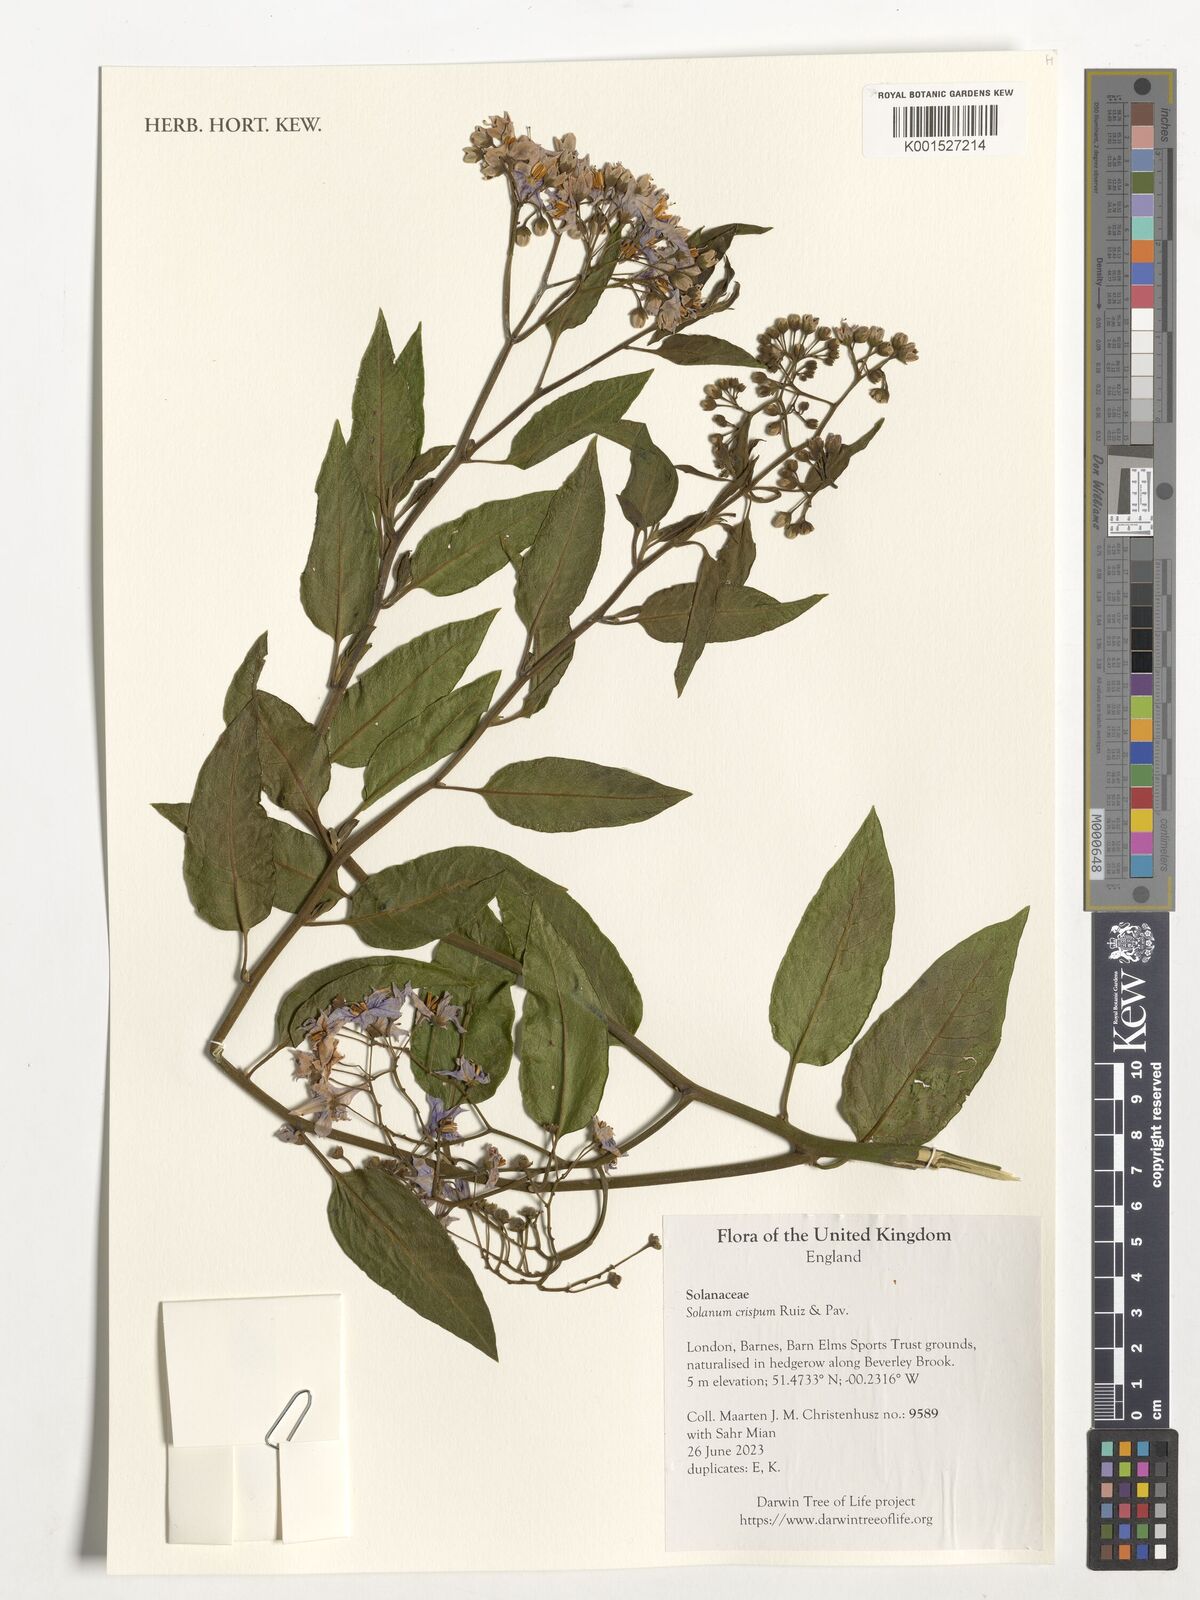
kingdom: Plantae
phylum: Tracheophyta
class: Magnoliopsida
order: Solanales
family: Solanaceae
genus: Solanum
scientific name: Solanum crispum
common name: Chilean nightshade
